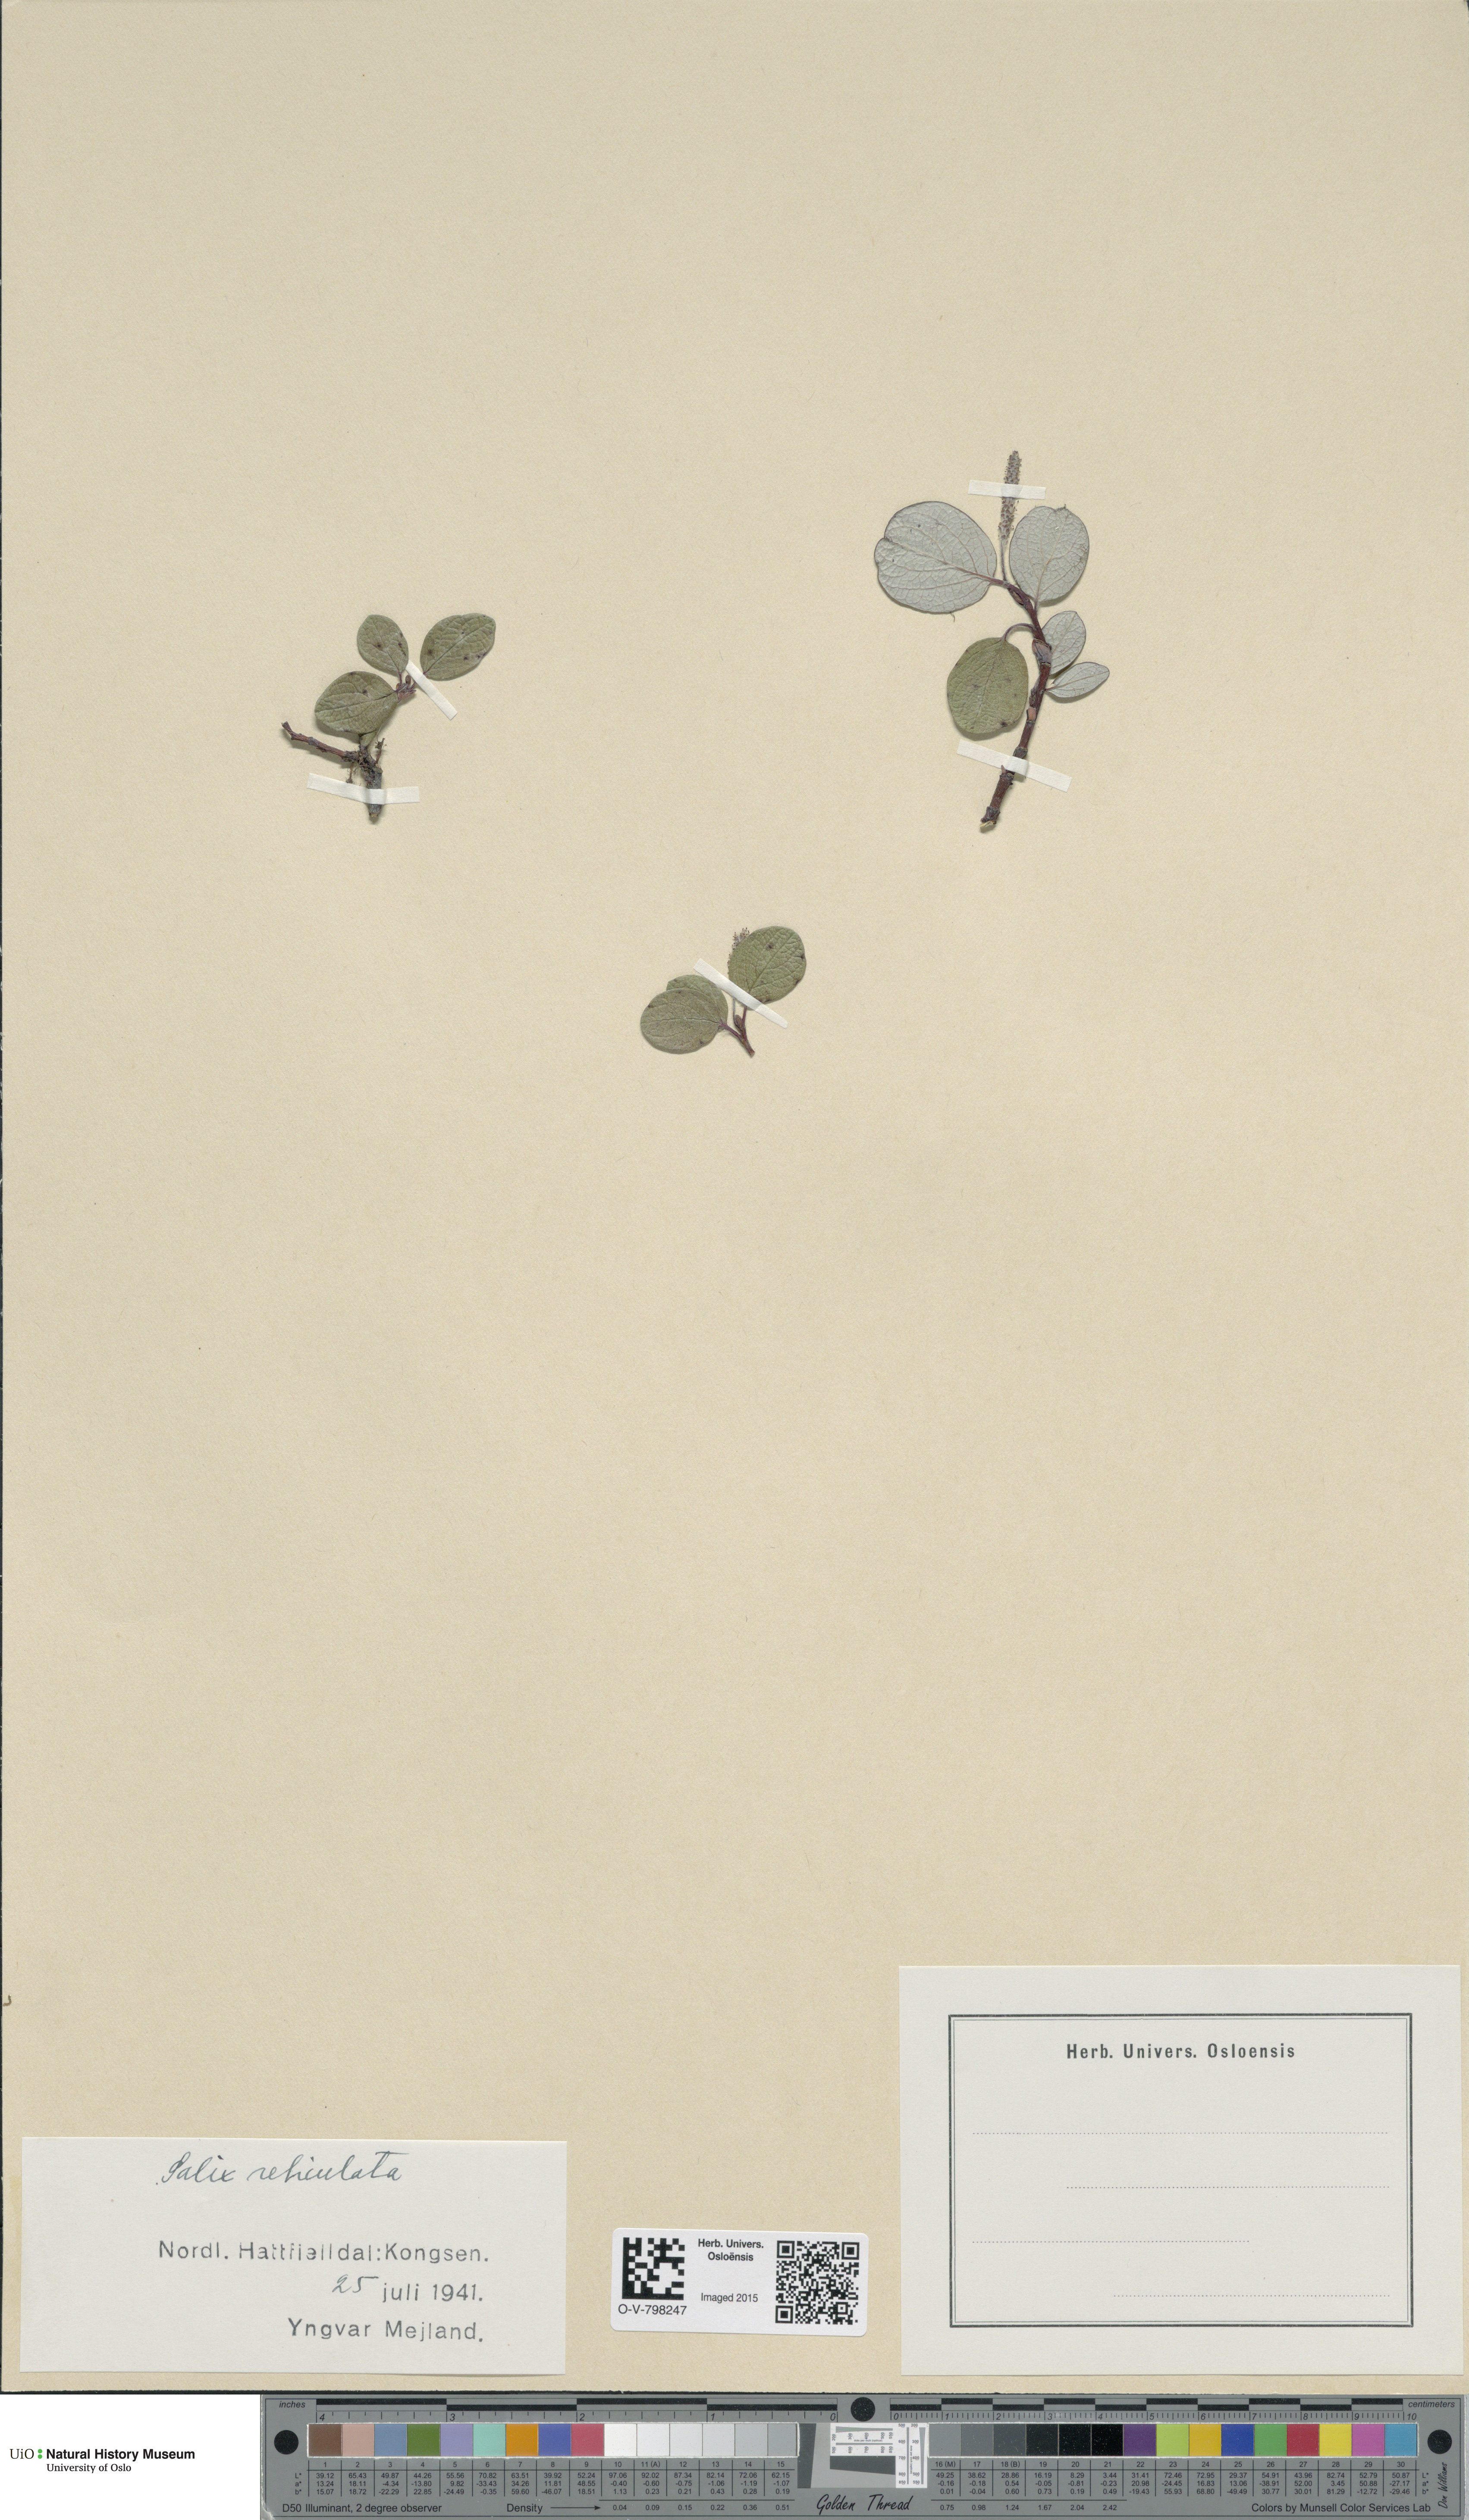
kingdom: Plantae
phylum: Tracheophyta
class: Magnoliopsida
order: Malpighiales
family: Salicaceae
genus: Salix
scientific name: Salix reticulata
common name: Net-leaved willow
